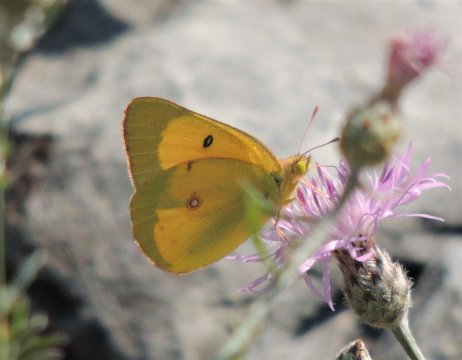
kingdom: Animalia
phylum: Arthropoda
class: Insecta
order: Lepidoptera
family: Pieridae
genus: Colias
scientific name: Colias eurytheme
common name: Orange Sulphur
